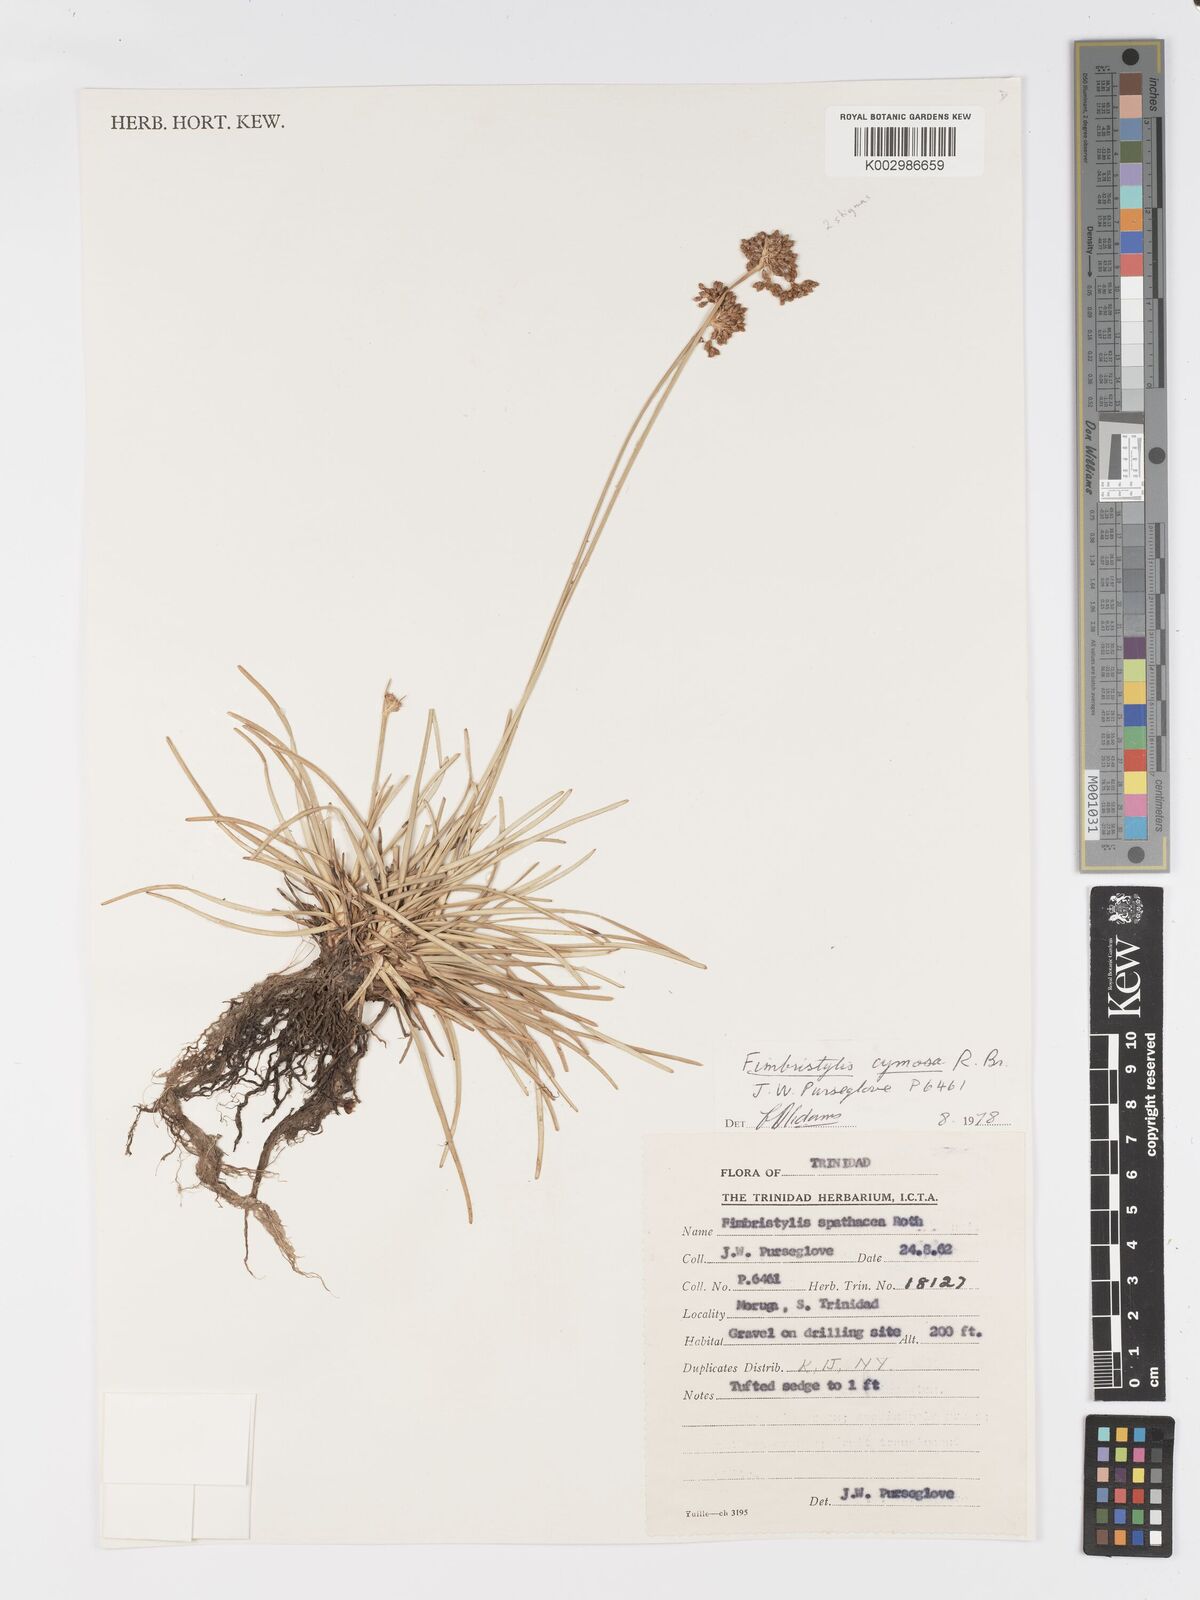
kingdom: Plantae
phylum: Tracheophyta
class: Liliopsida
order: Poales
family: Cyperaceae
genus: Fimbristylis
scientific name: Fimbristylis cymosa
